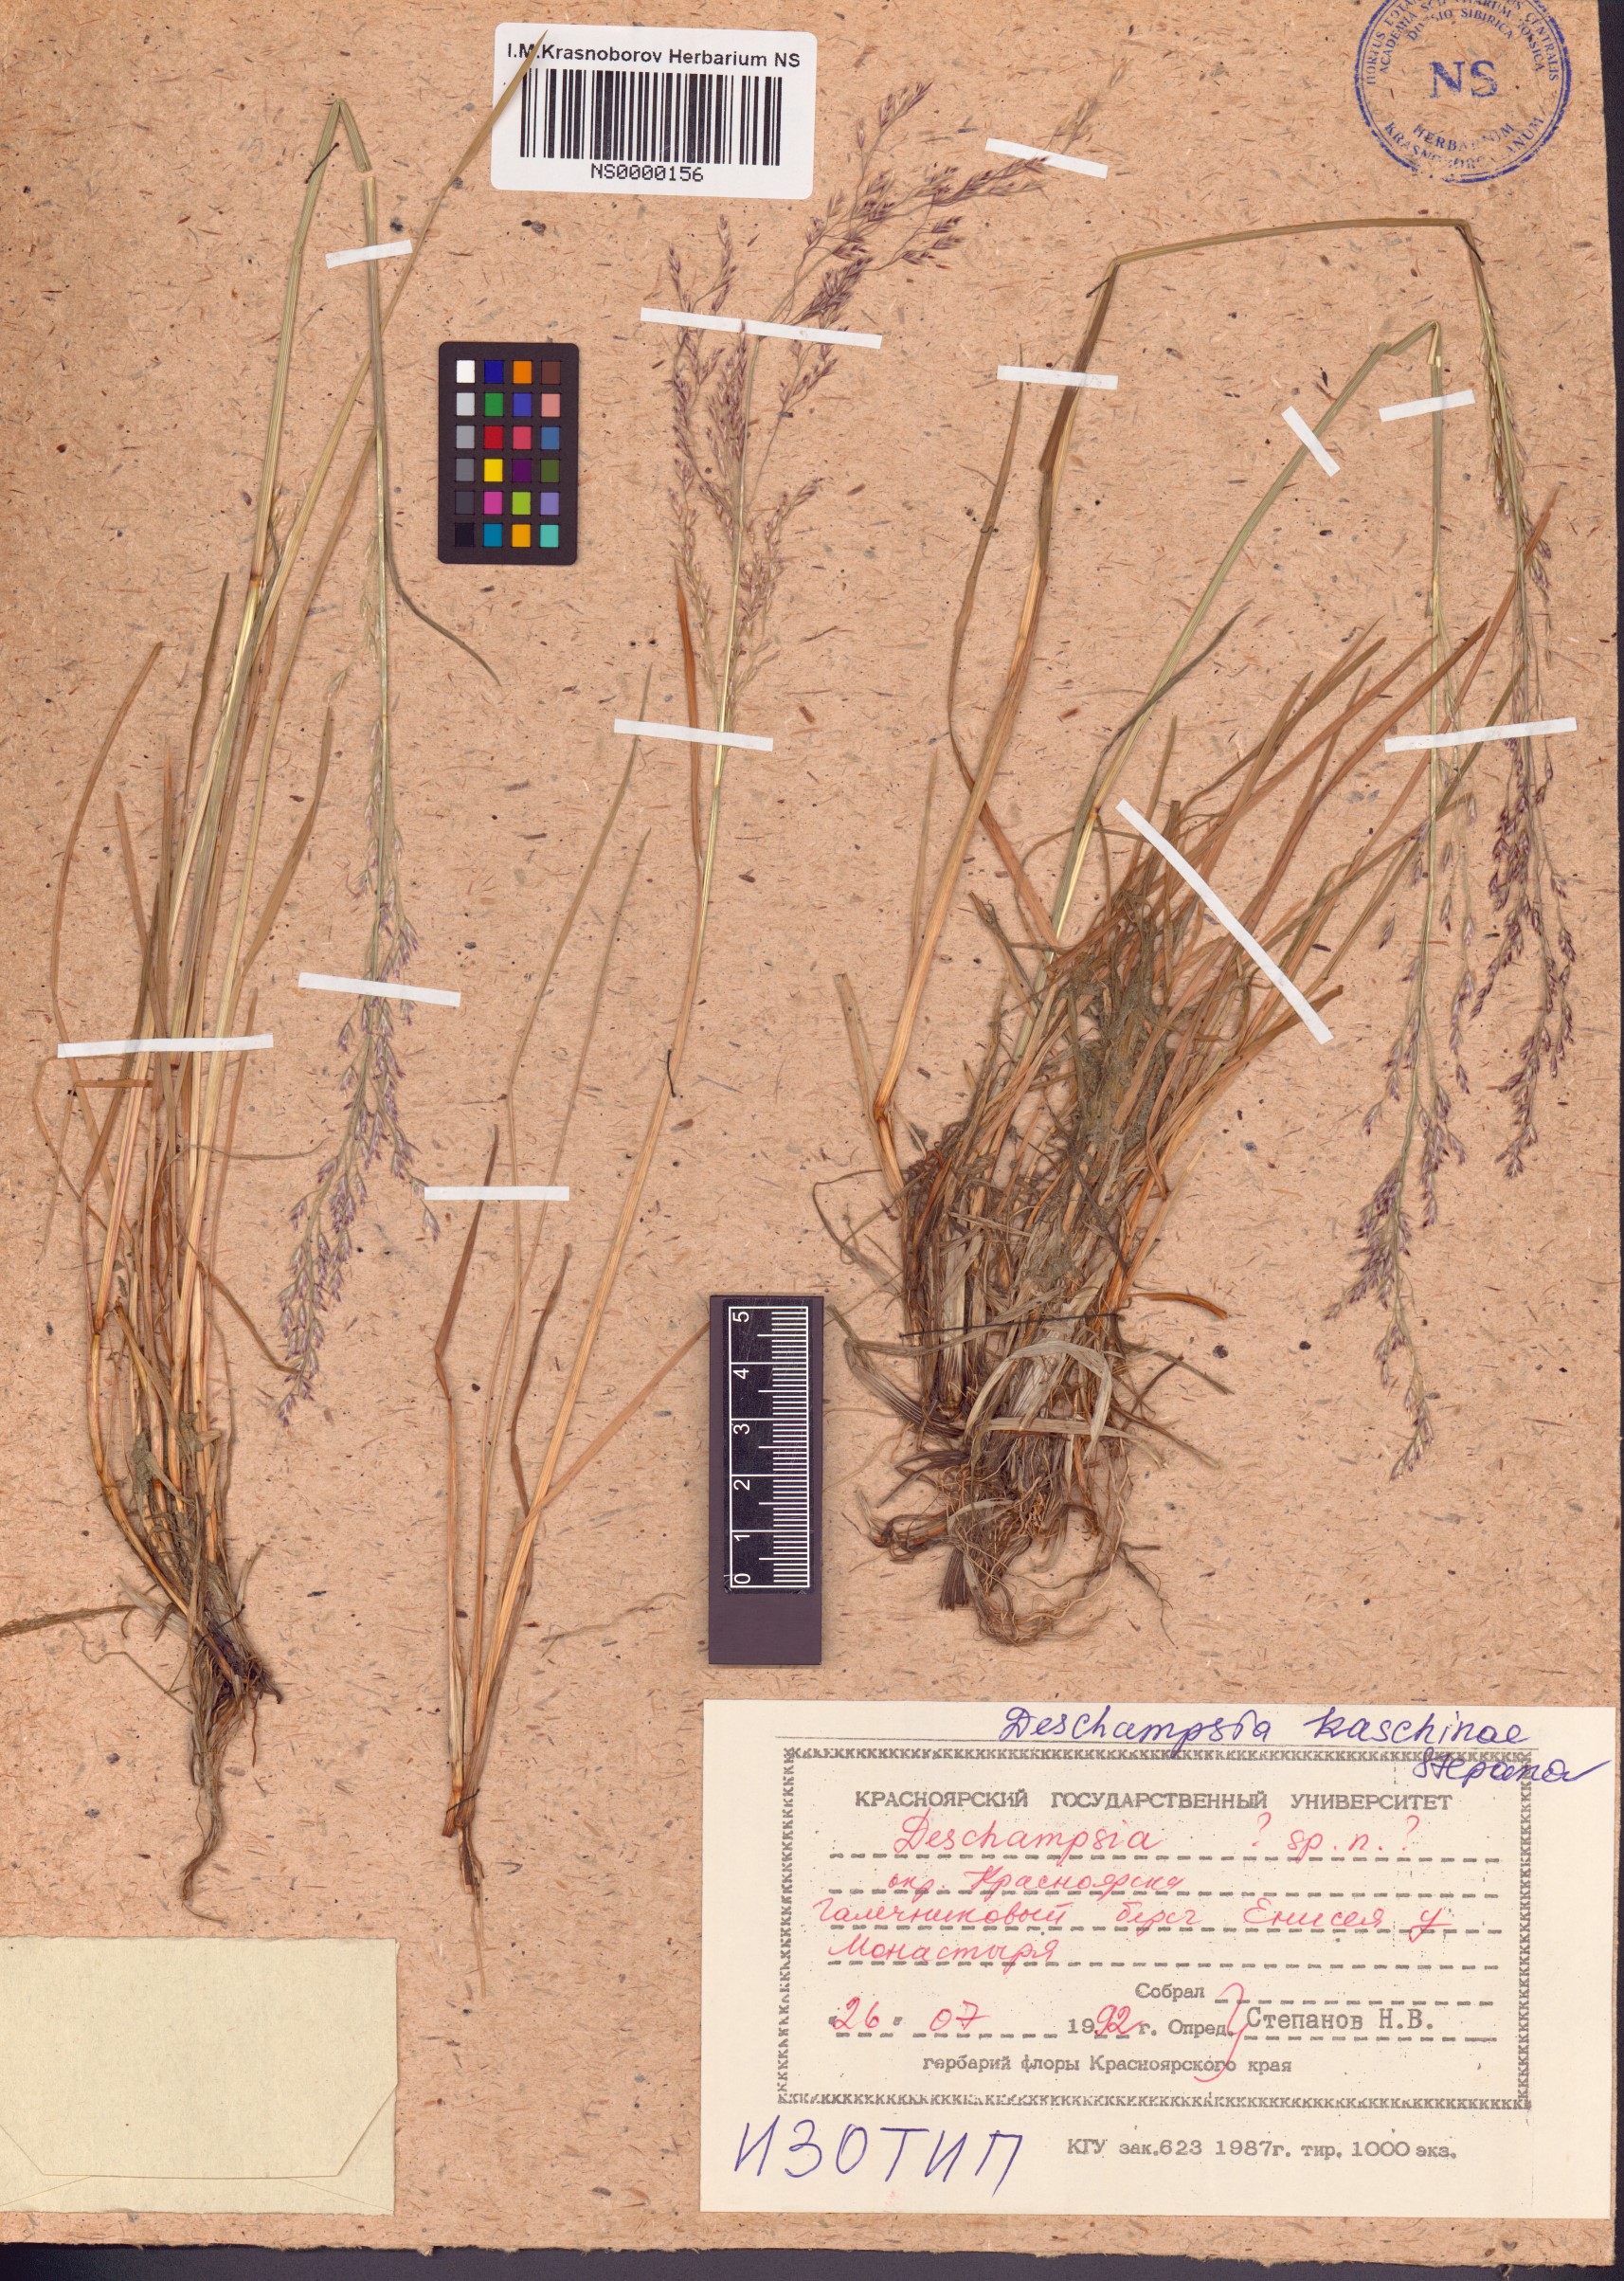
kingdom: Plantae
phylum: Tracheophyta
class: Liliopsida
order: Poales
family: Poaceae
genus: Deschampsia
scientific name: Deschampsia cespitosa
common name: Tufted hair-grass
